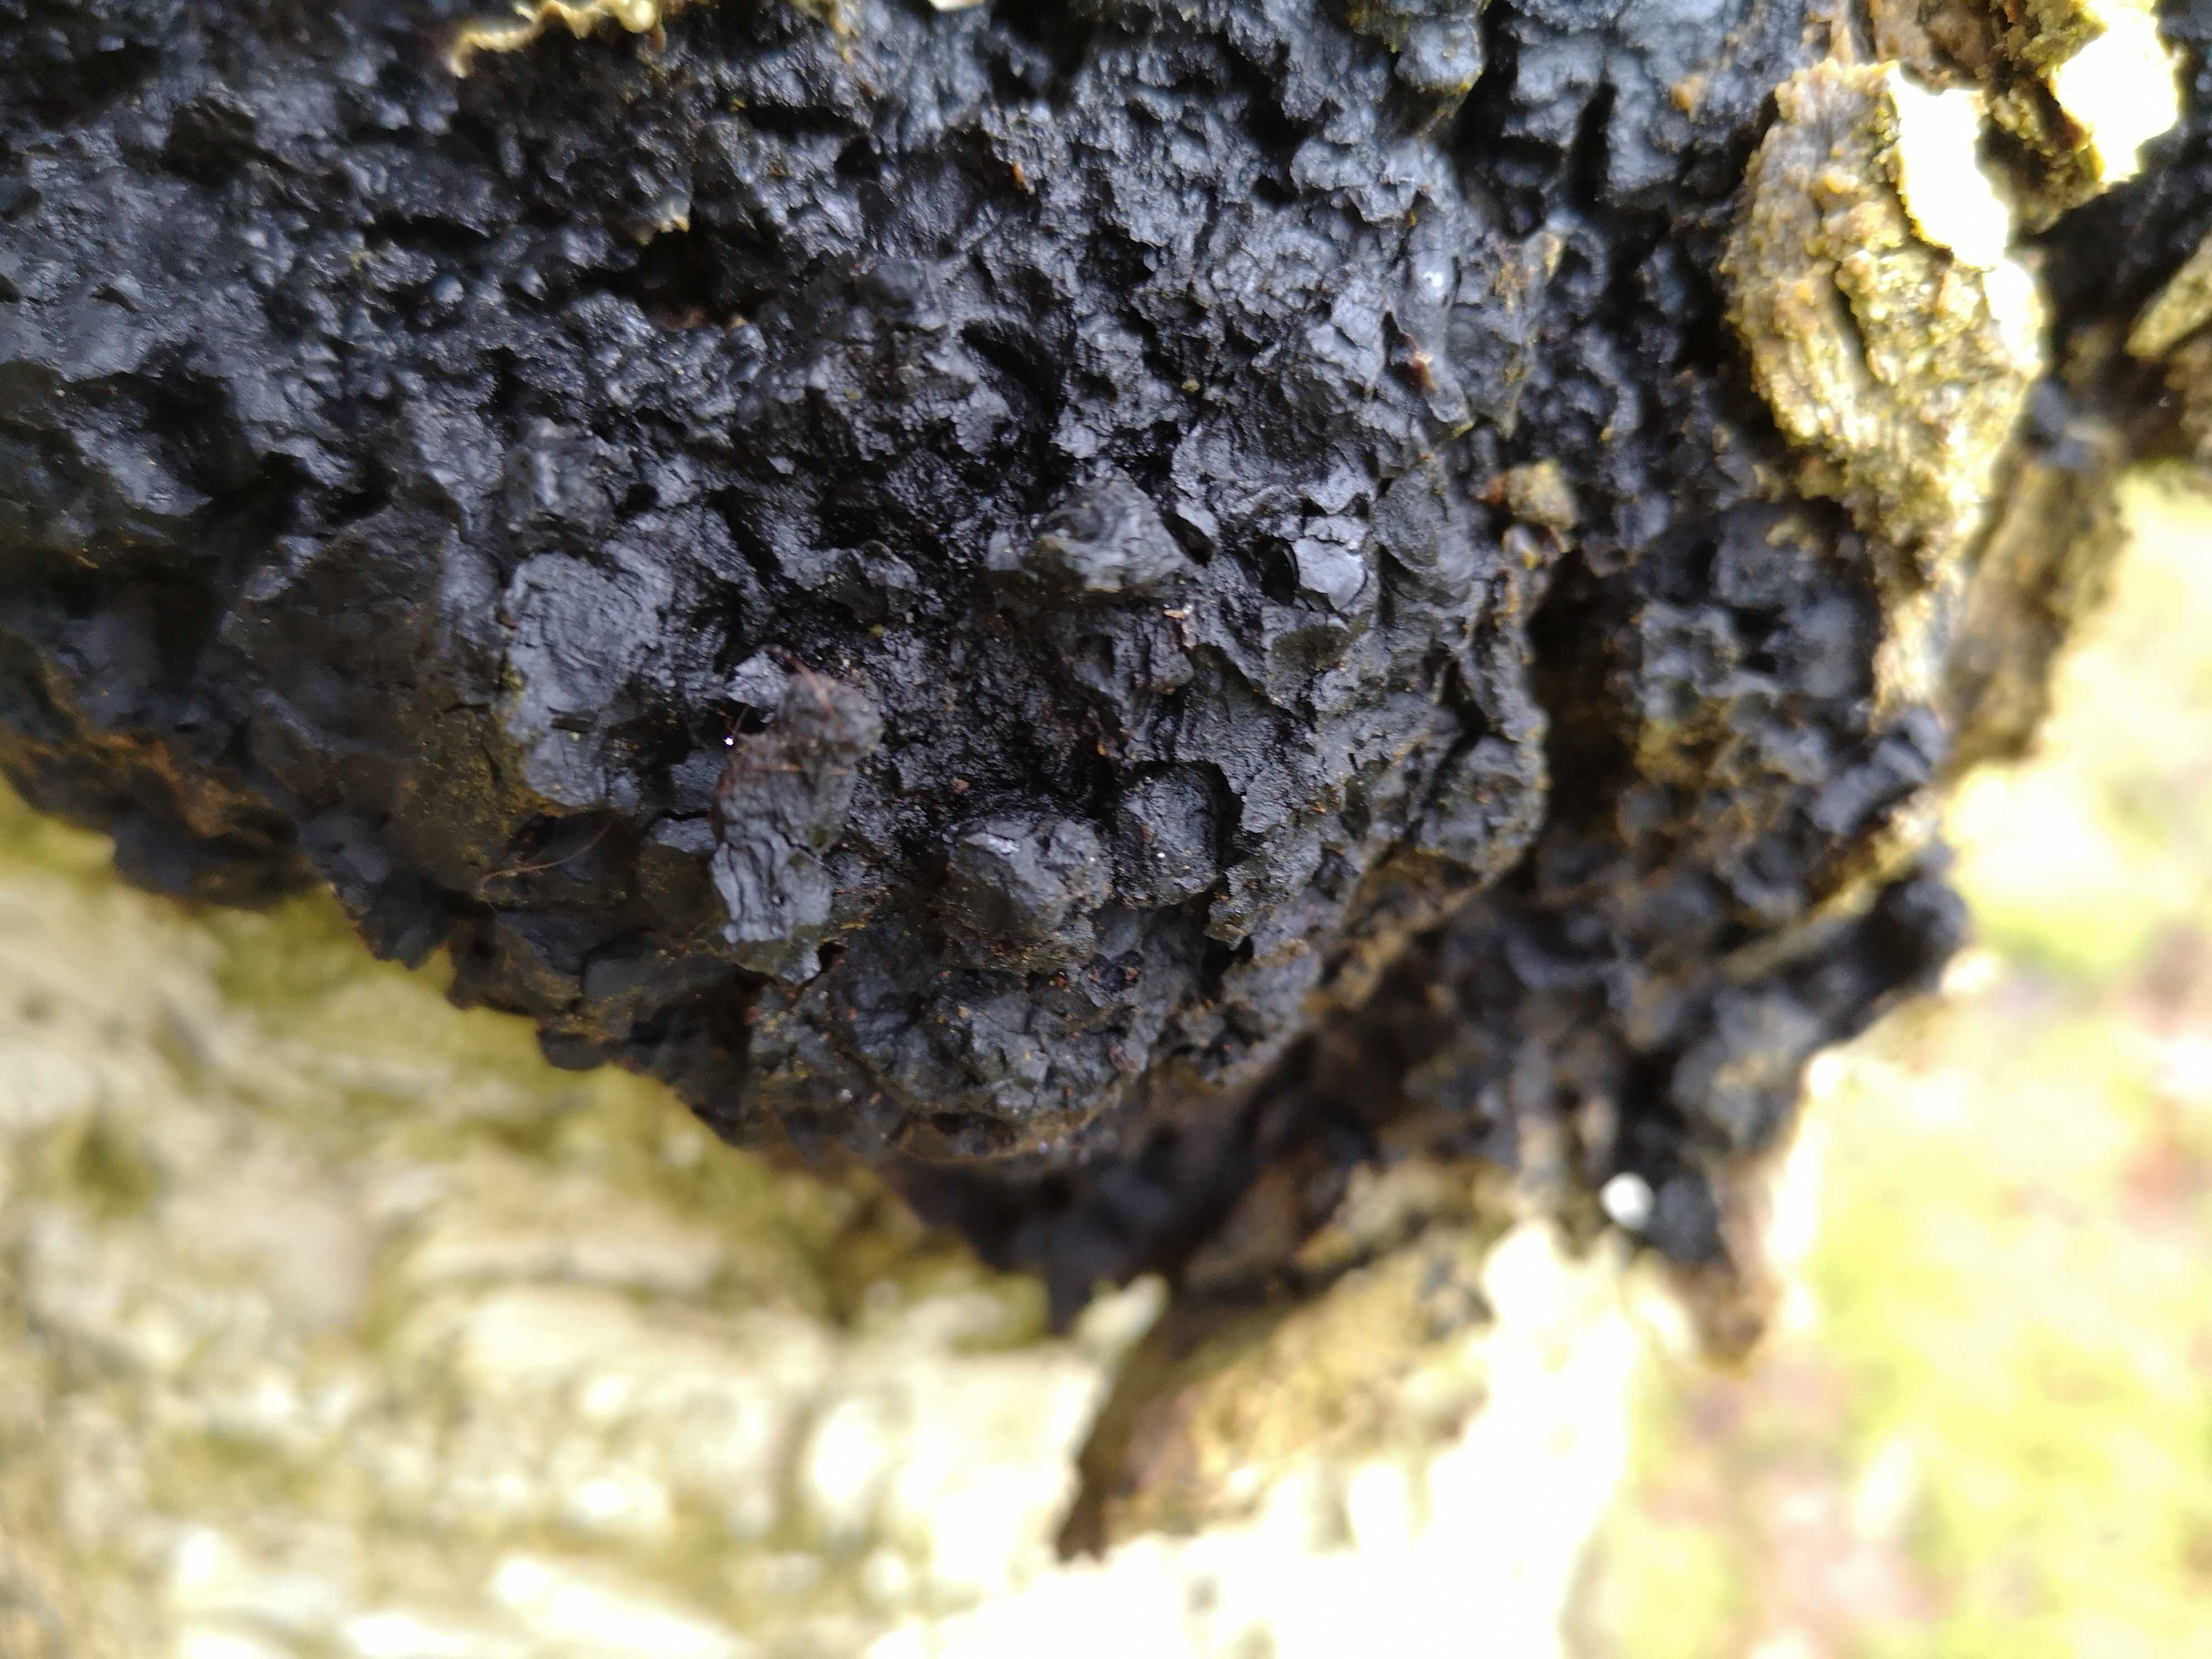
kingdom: Fungi
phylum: Basidiomycota
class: Agaricomycetes
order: Hymenochaetales
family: Hymenochaetaceae
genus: Inonotus
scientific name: Inonotus obliquus
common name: birke-spejlporesvamp
